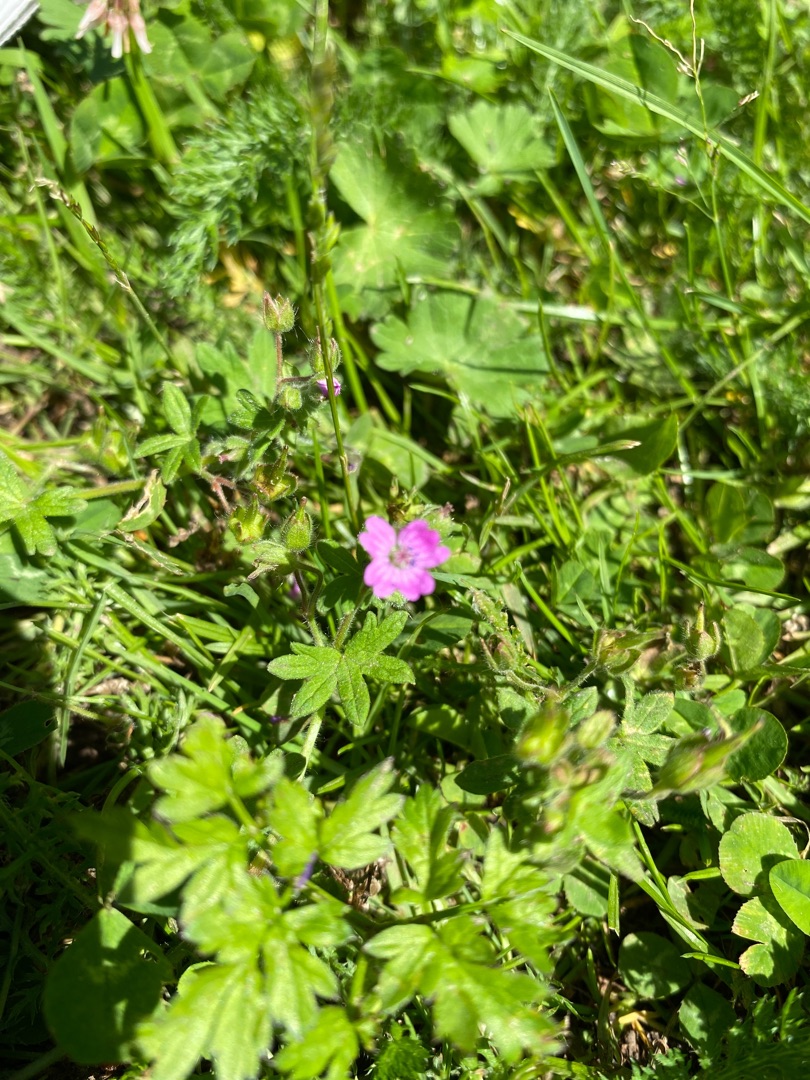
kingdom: Plantae
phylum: Tracheophyta
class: Magnoliopsida
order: Geraniales
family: Geraniaceae
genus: Geranium
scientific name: Geranium molle
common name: Blød storkenæb
